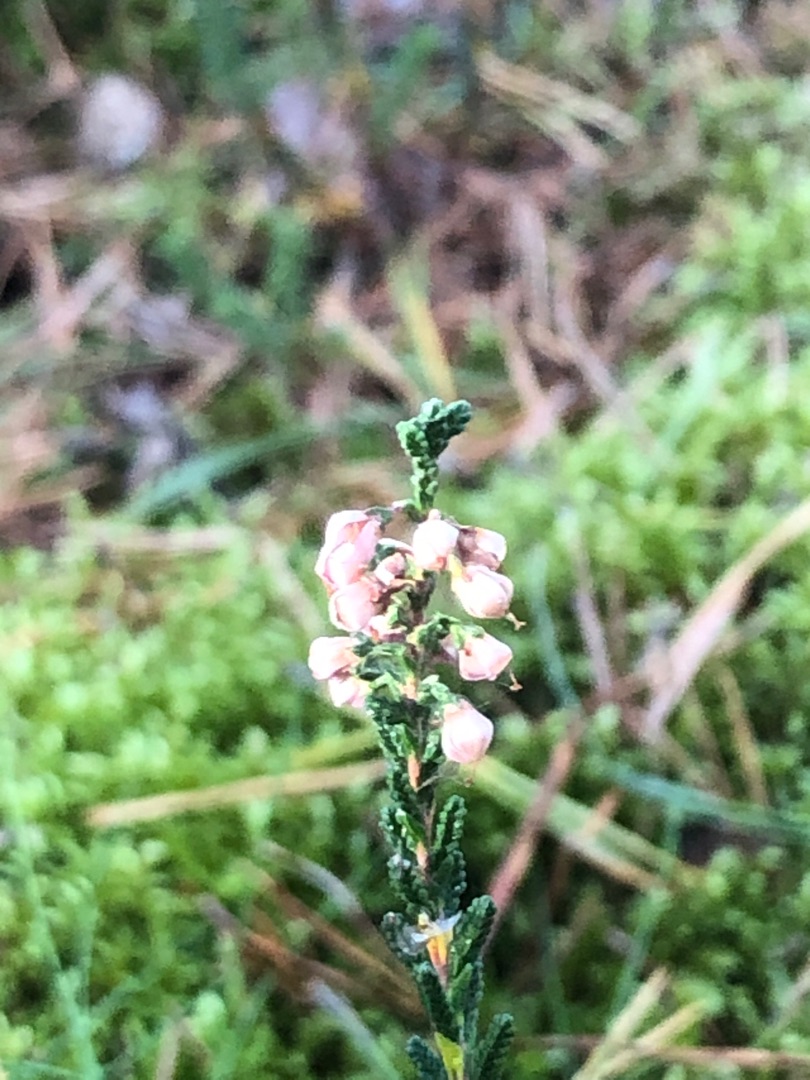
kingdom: Plantae
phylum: Tracheophyta
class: Magnoliopsida
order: Ericales
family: Ericaceae
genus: Calluna
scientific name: Calluna vulgaris
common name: Hedelyng
